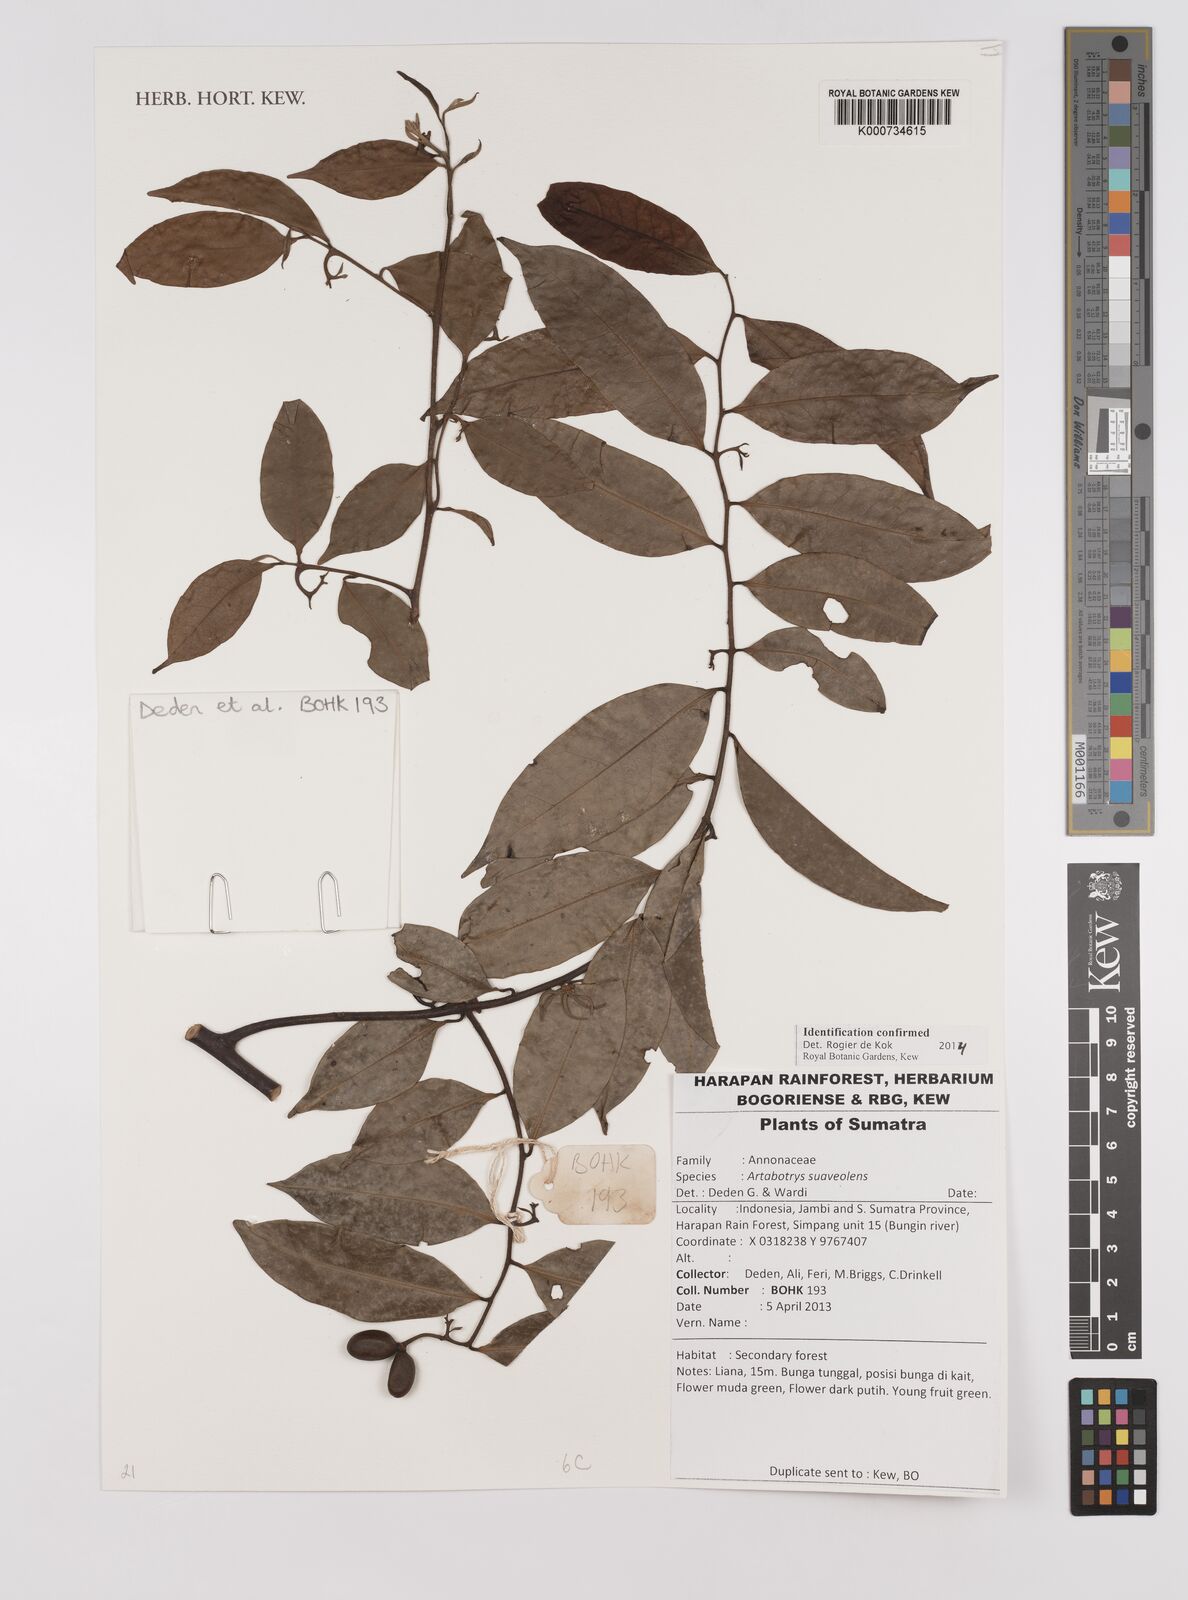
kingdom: Plantae
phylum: Tracheophyta
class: Magnoliopsida
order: Magnoliales
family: Annonaceae
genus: Artabotrys
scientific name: Artabotrys suaveolens
